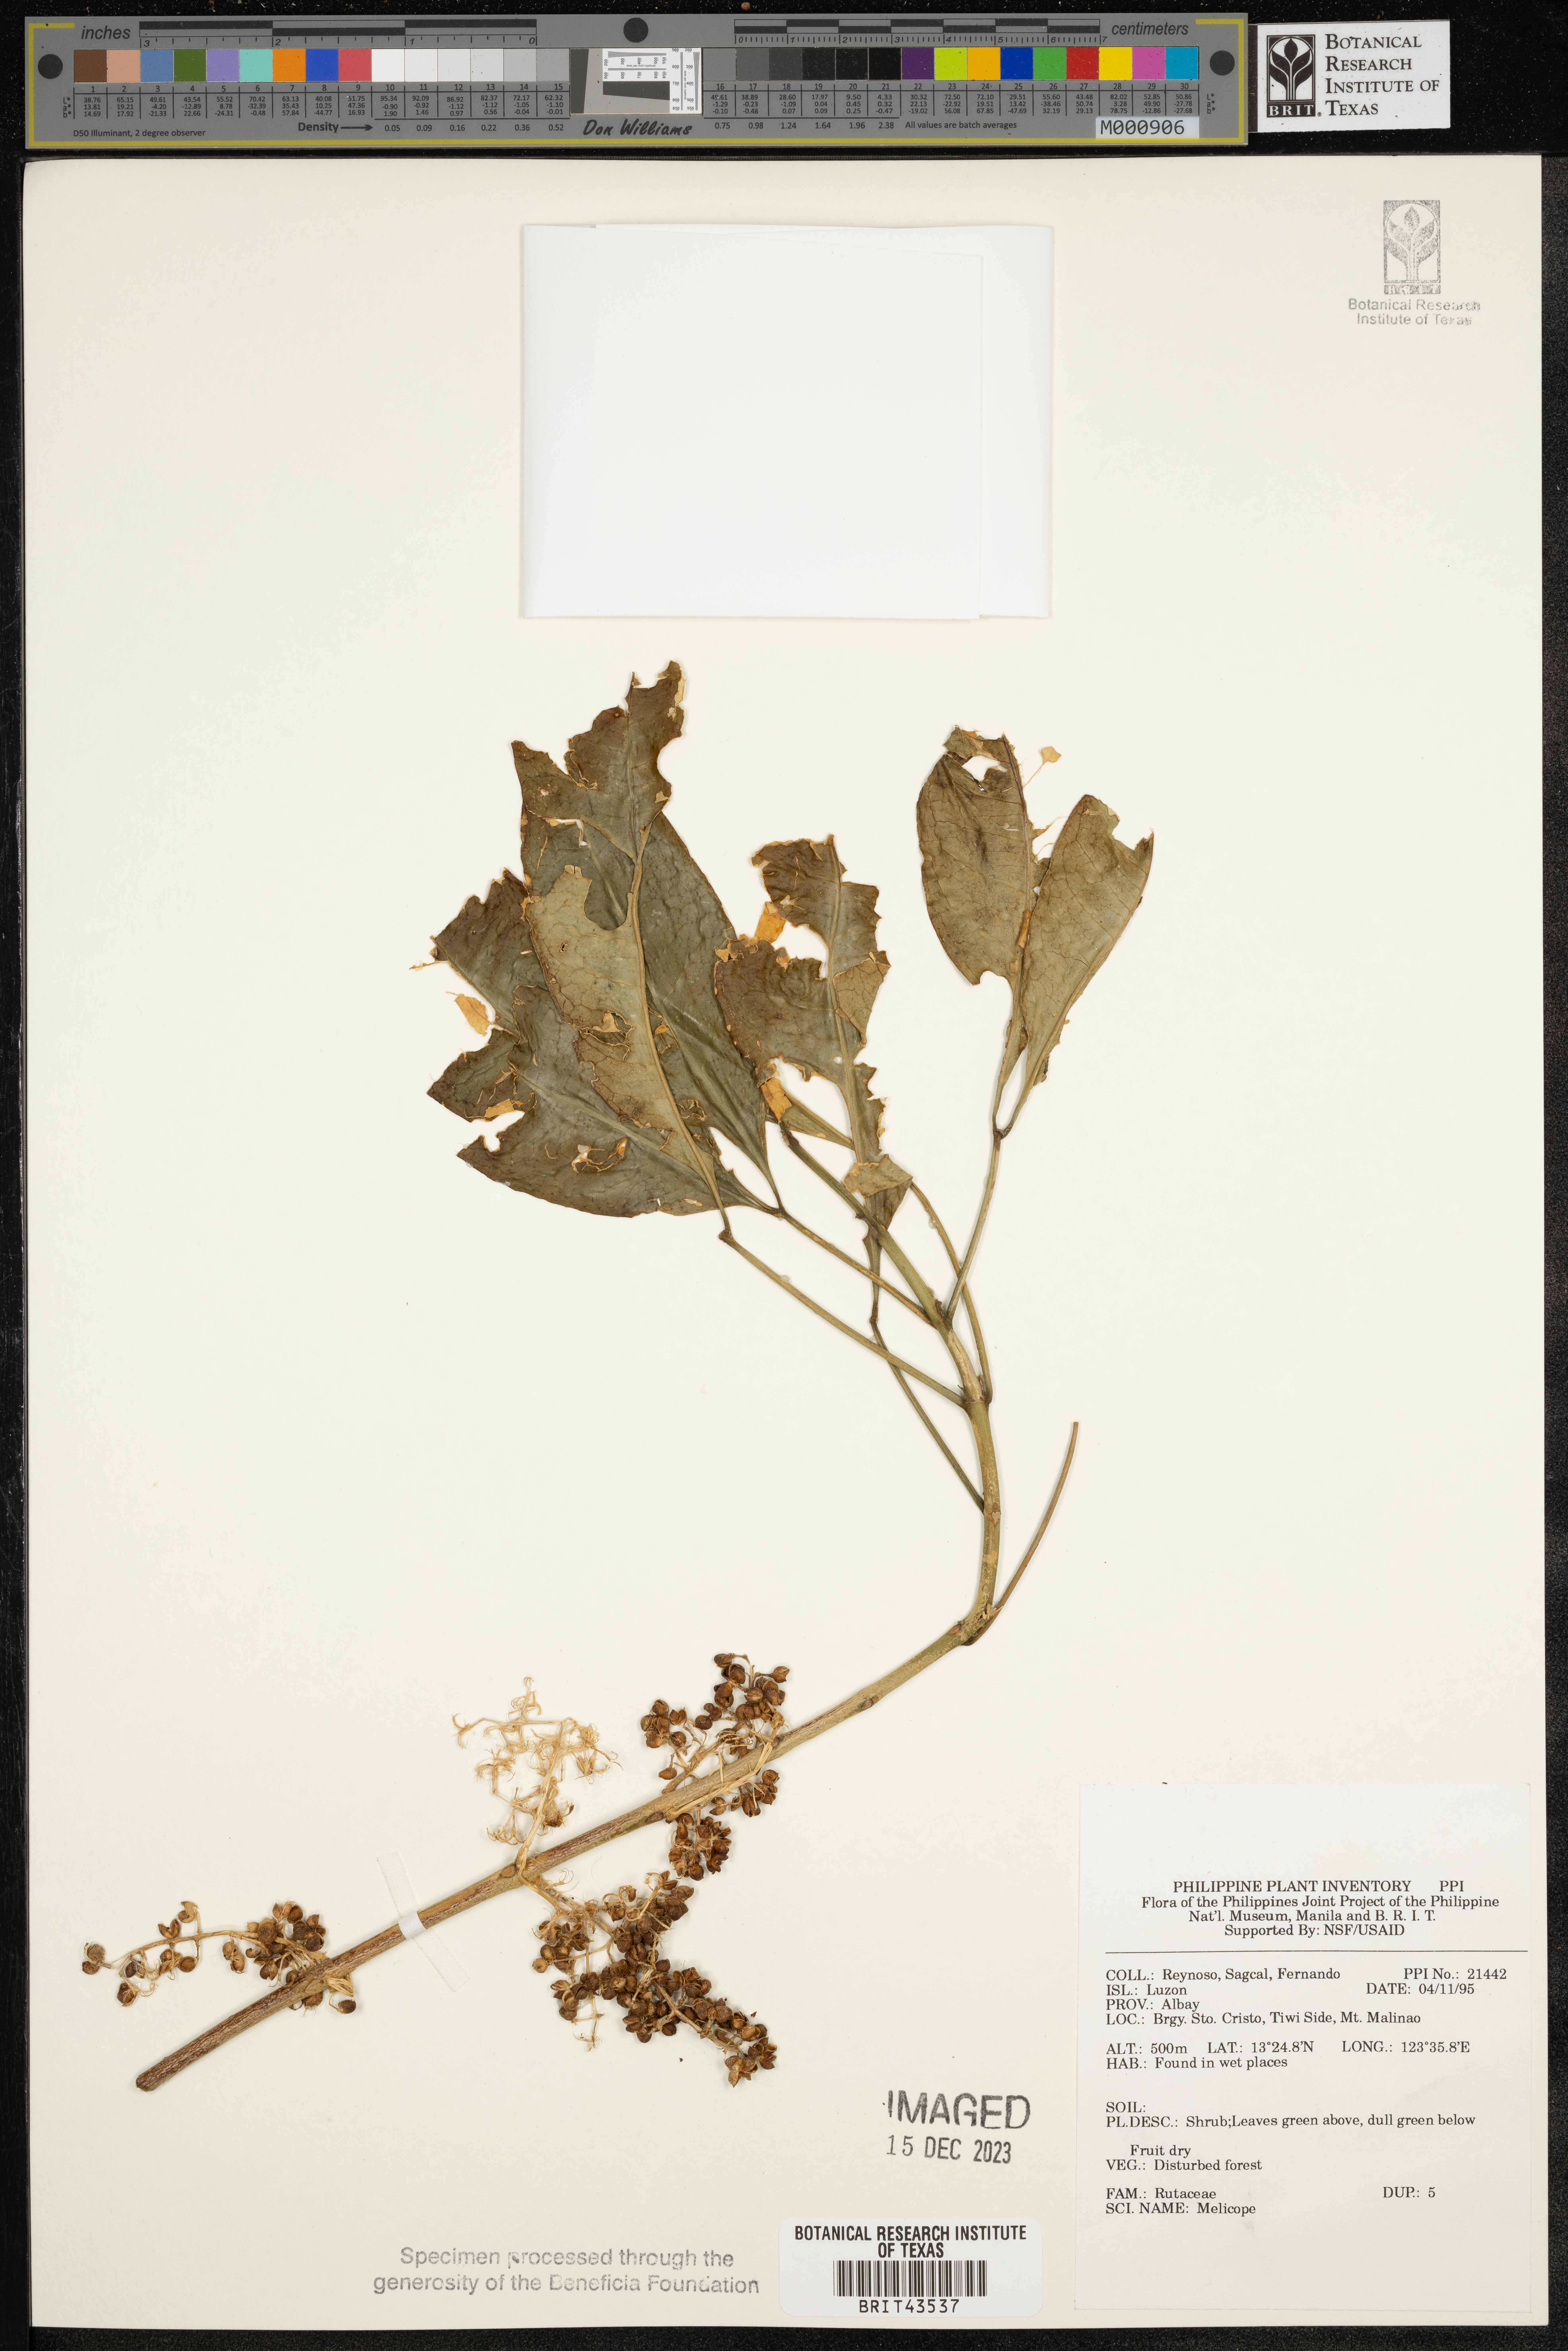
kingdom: Plantae
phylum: Tracheophyta
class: Magnoliopsida
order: Sapindales
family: Rutaceae
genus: Melicope
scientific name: Melicope
